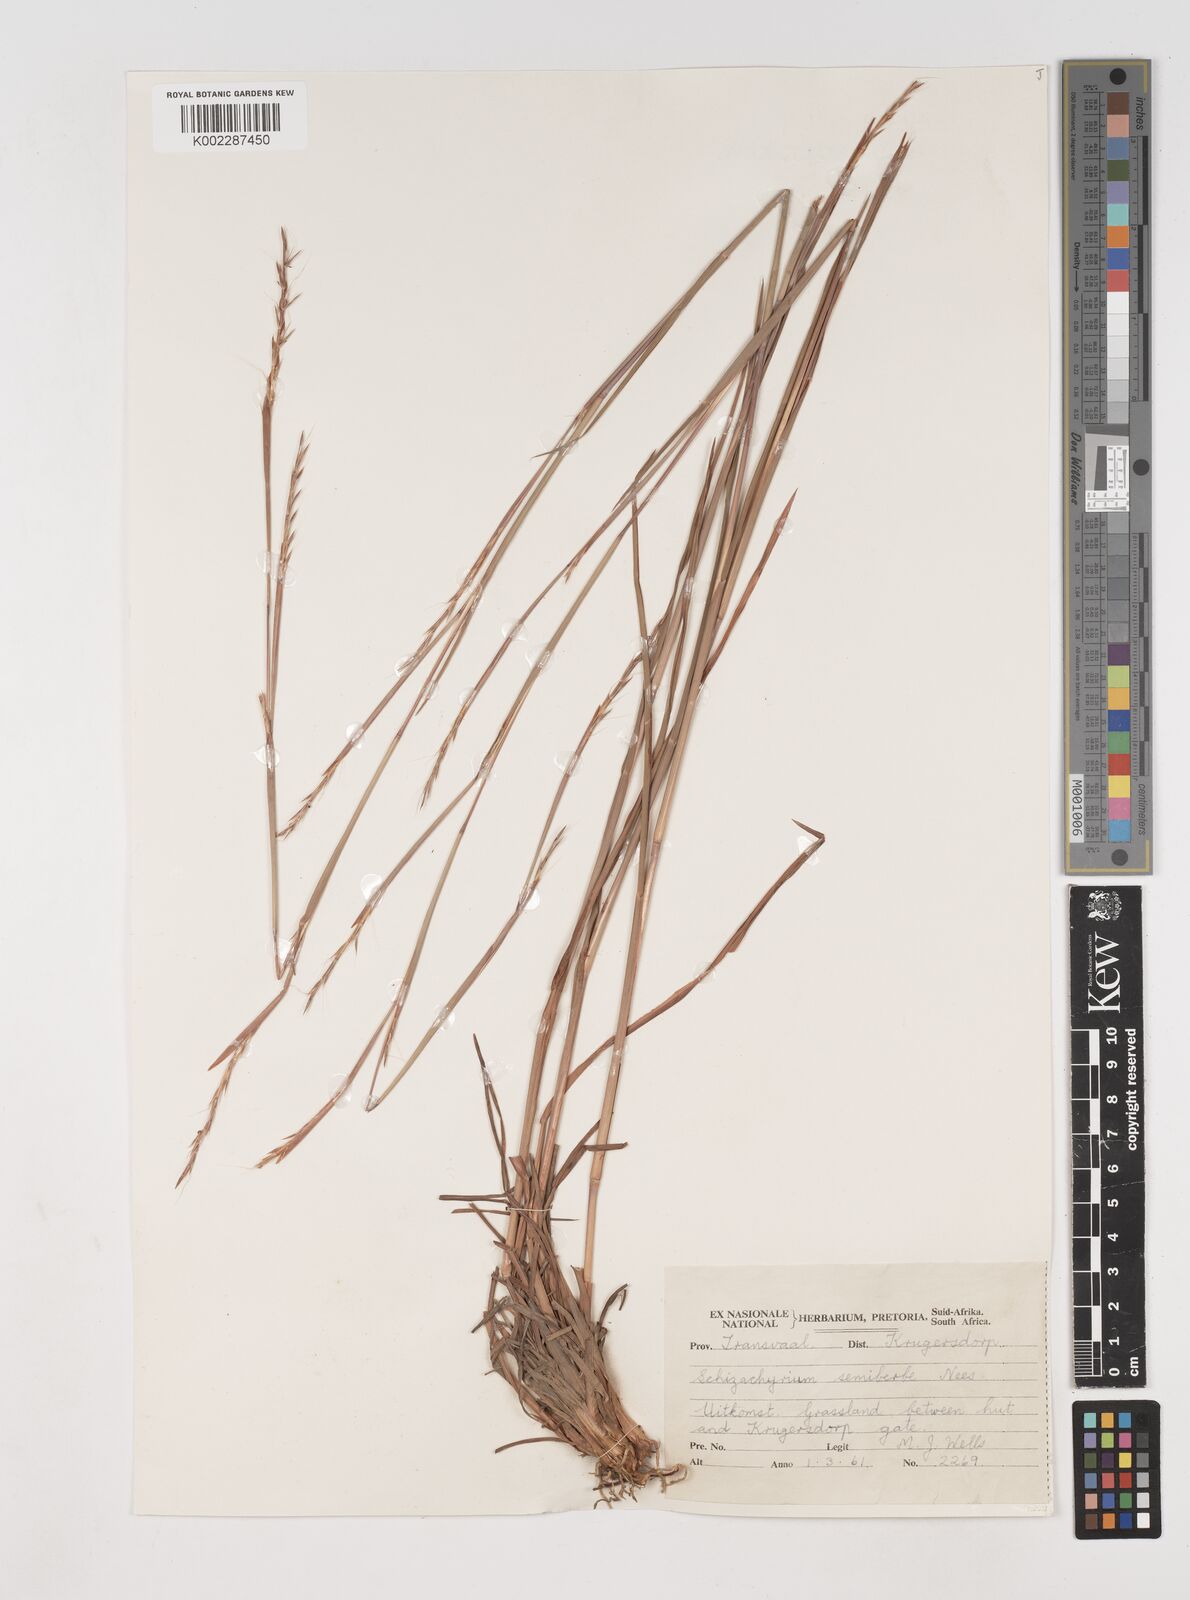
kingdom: Plantae
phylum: Tracheophyta
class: Liliopsida
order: Poales
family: Poaceae
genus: Schizachyrium
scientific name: Schizachyrium sanguineum
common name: Crimson bluestem
